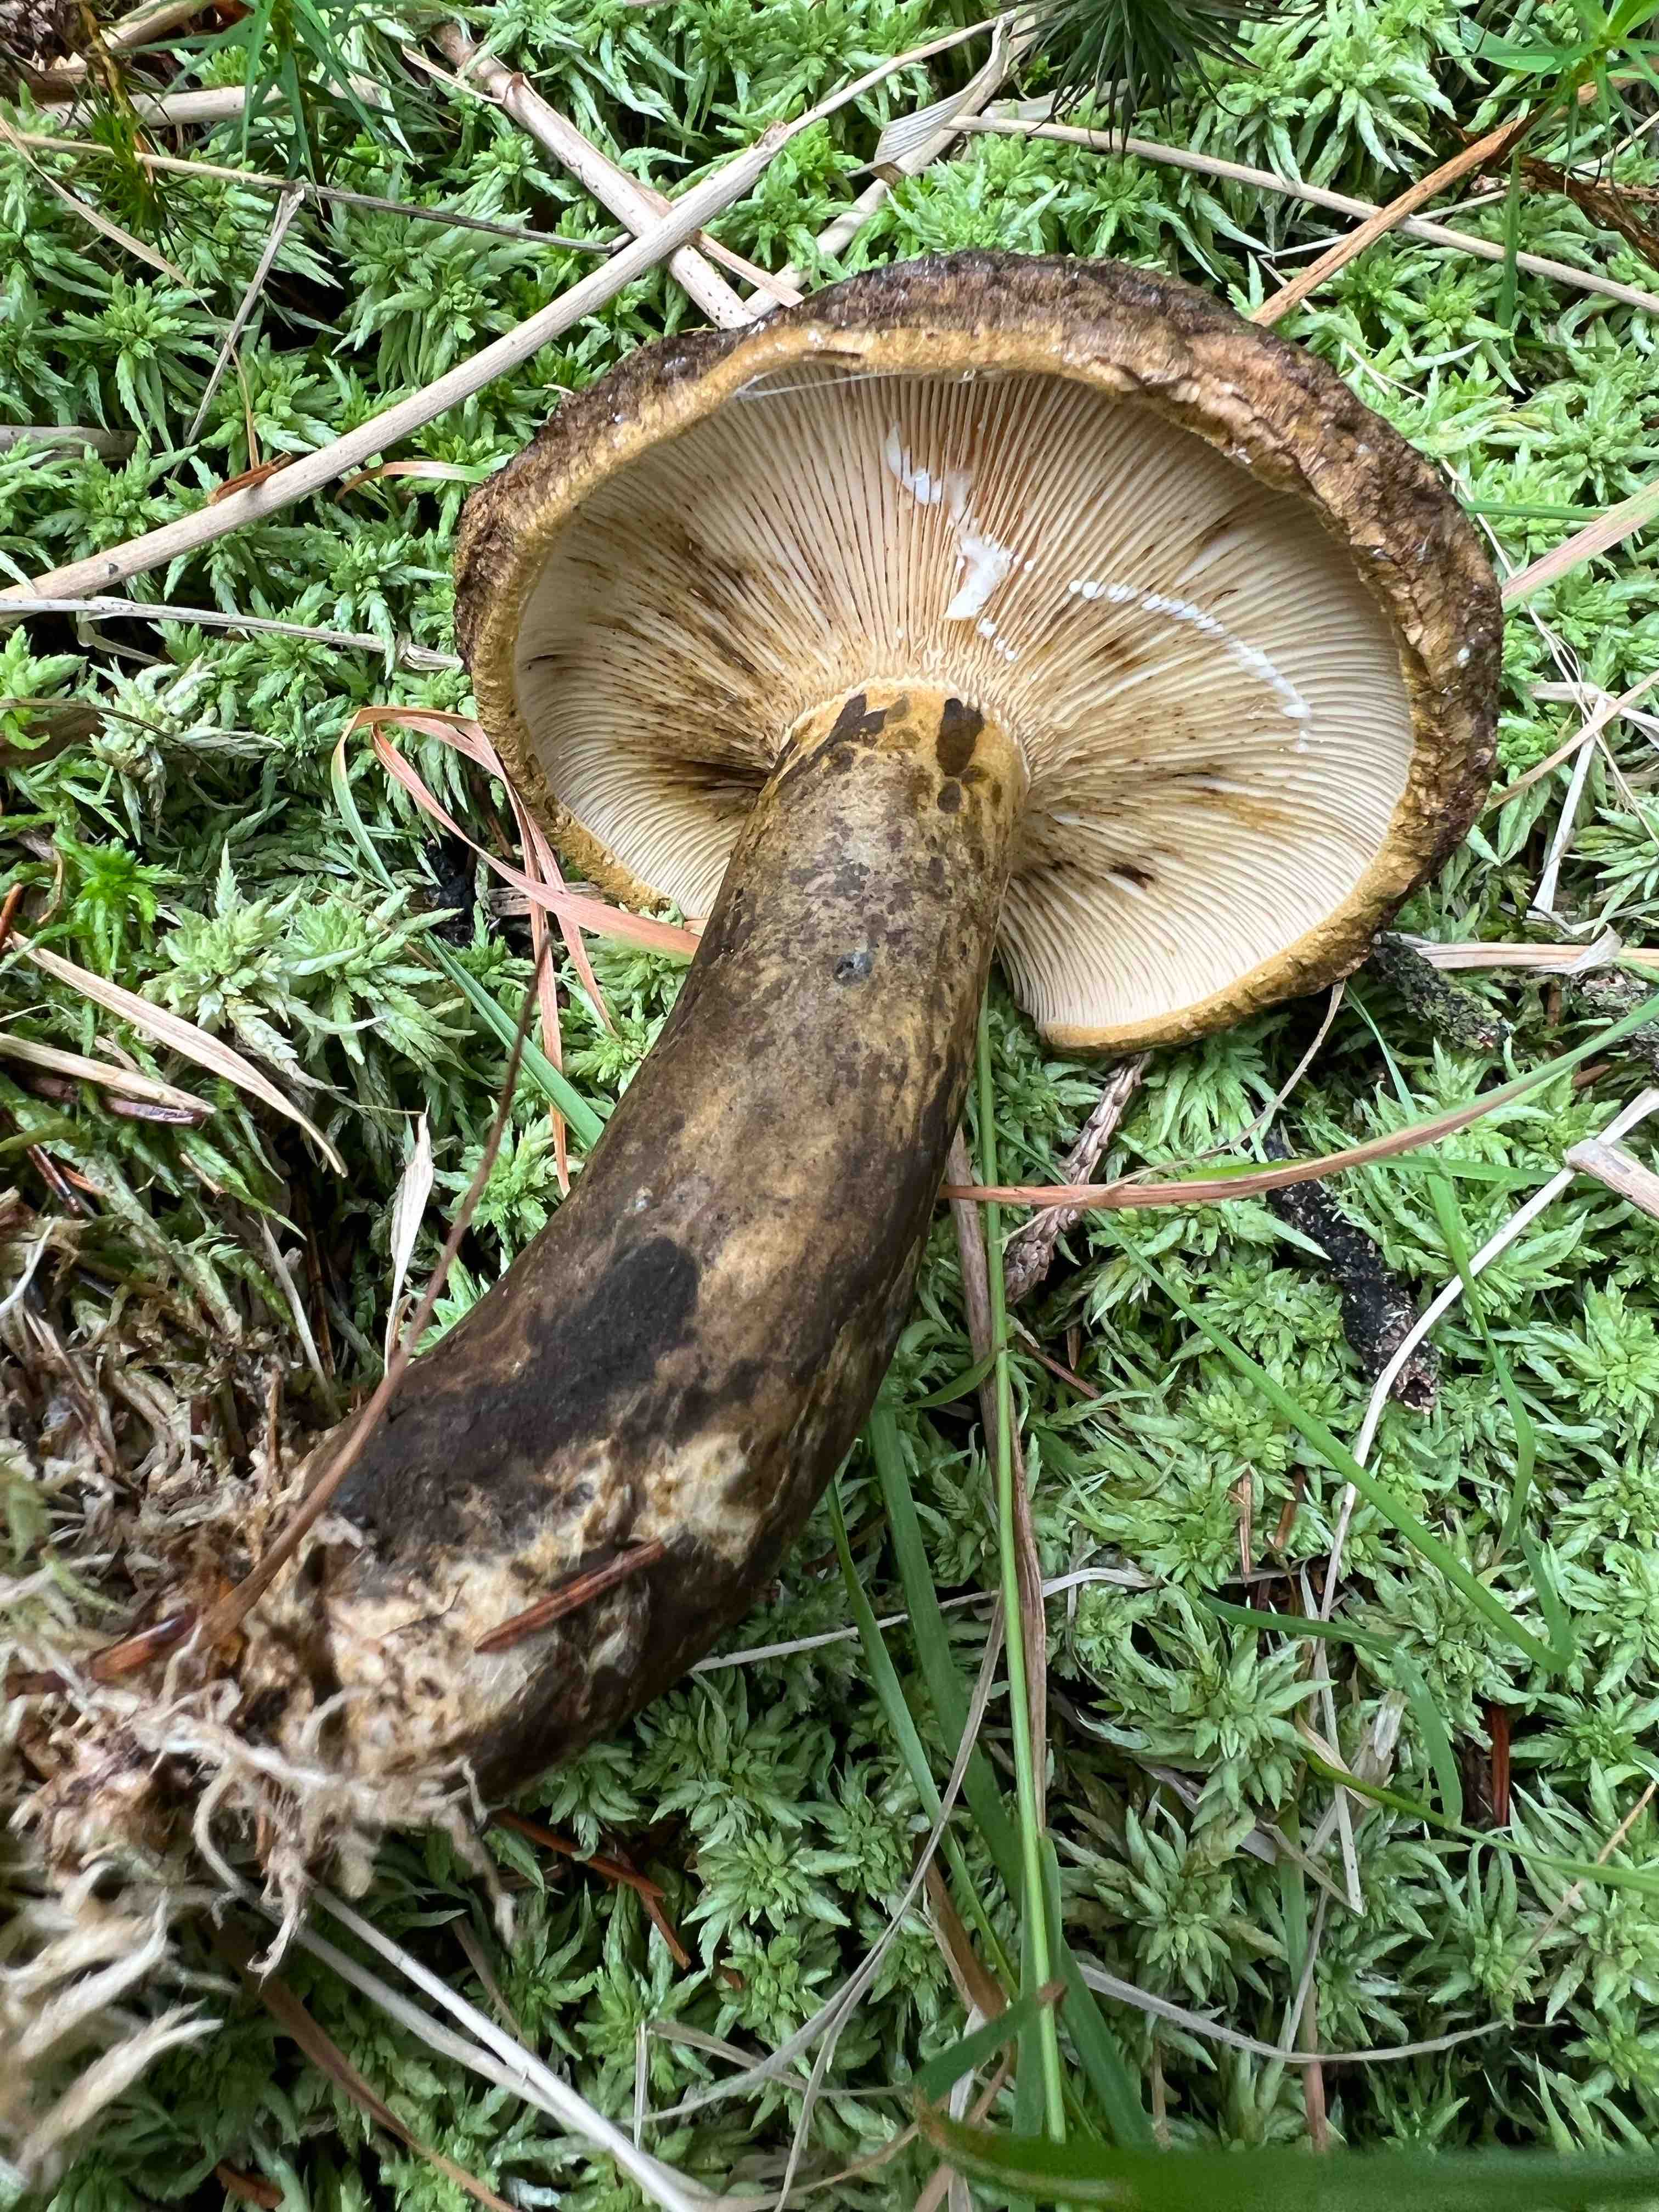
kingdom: Fungi
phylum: Basidiomycota
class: Agaricomycetes
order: Russulales
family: Russulaceae
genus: Lactarius
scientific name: Lactarius necator
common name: manddraber-mælkehat
